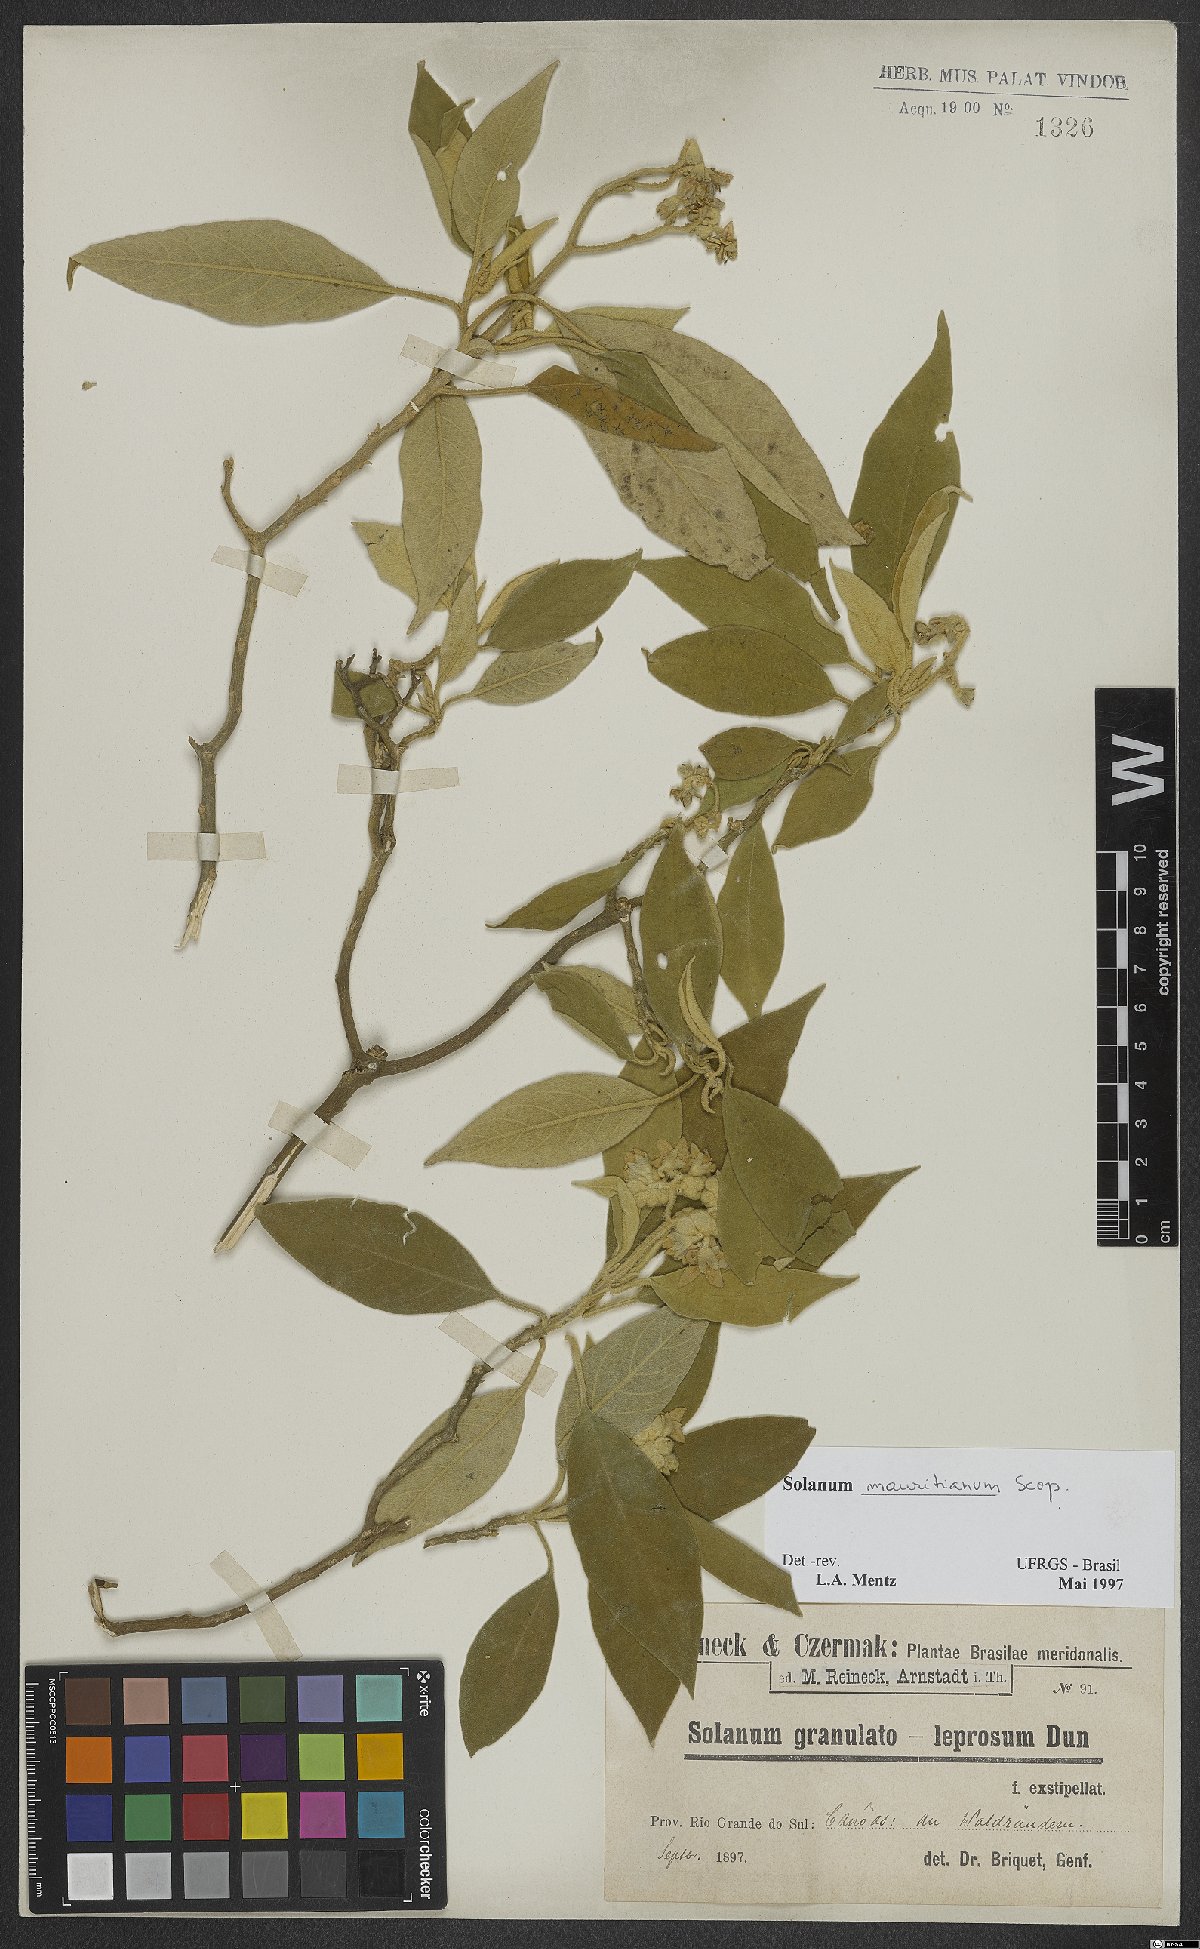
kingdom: Plantae
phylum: Tracheophyta
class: Magnoliopsida
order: Solanales
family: Solanaceae
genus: Solanum
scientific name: Solanum mauritianum
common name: Earleaf nightshade
